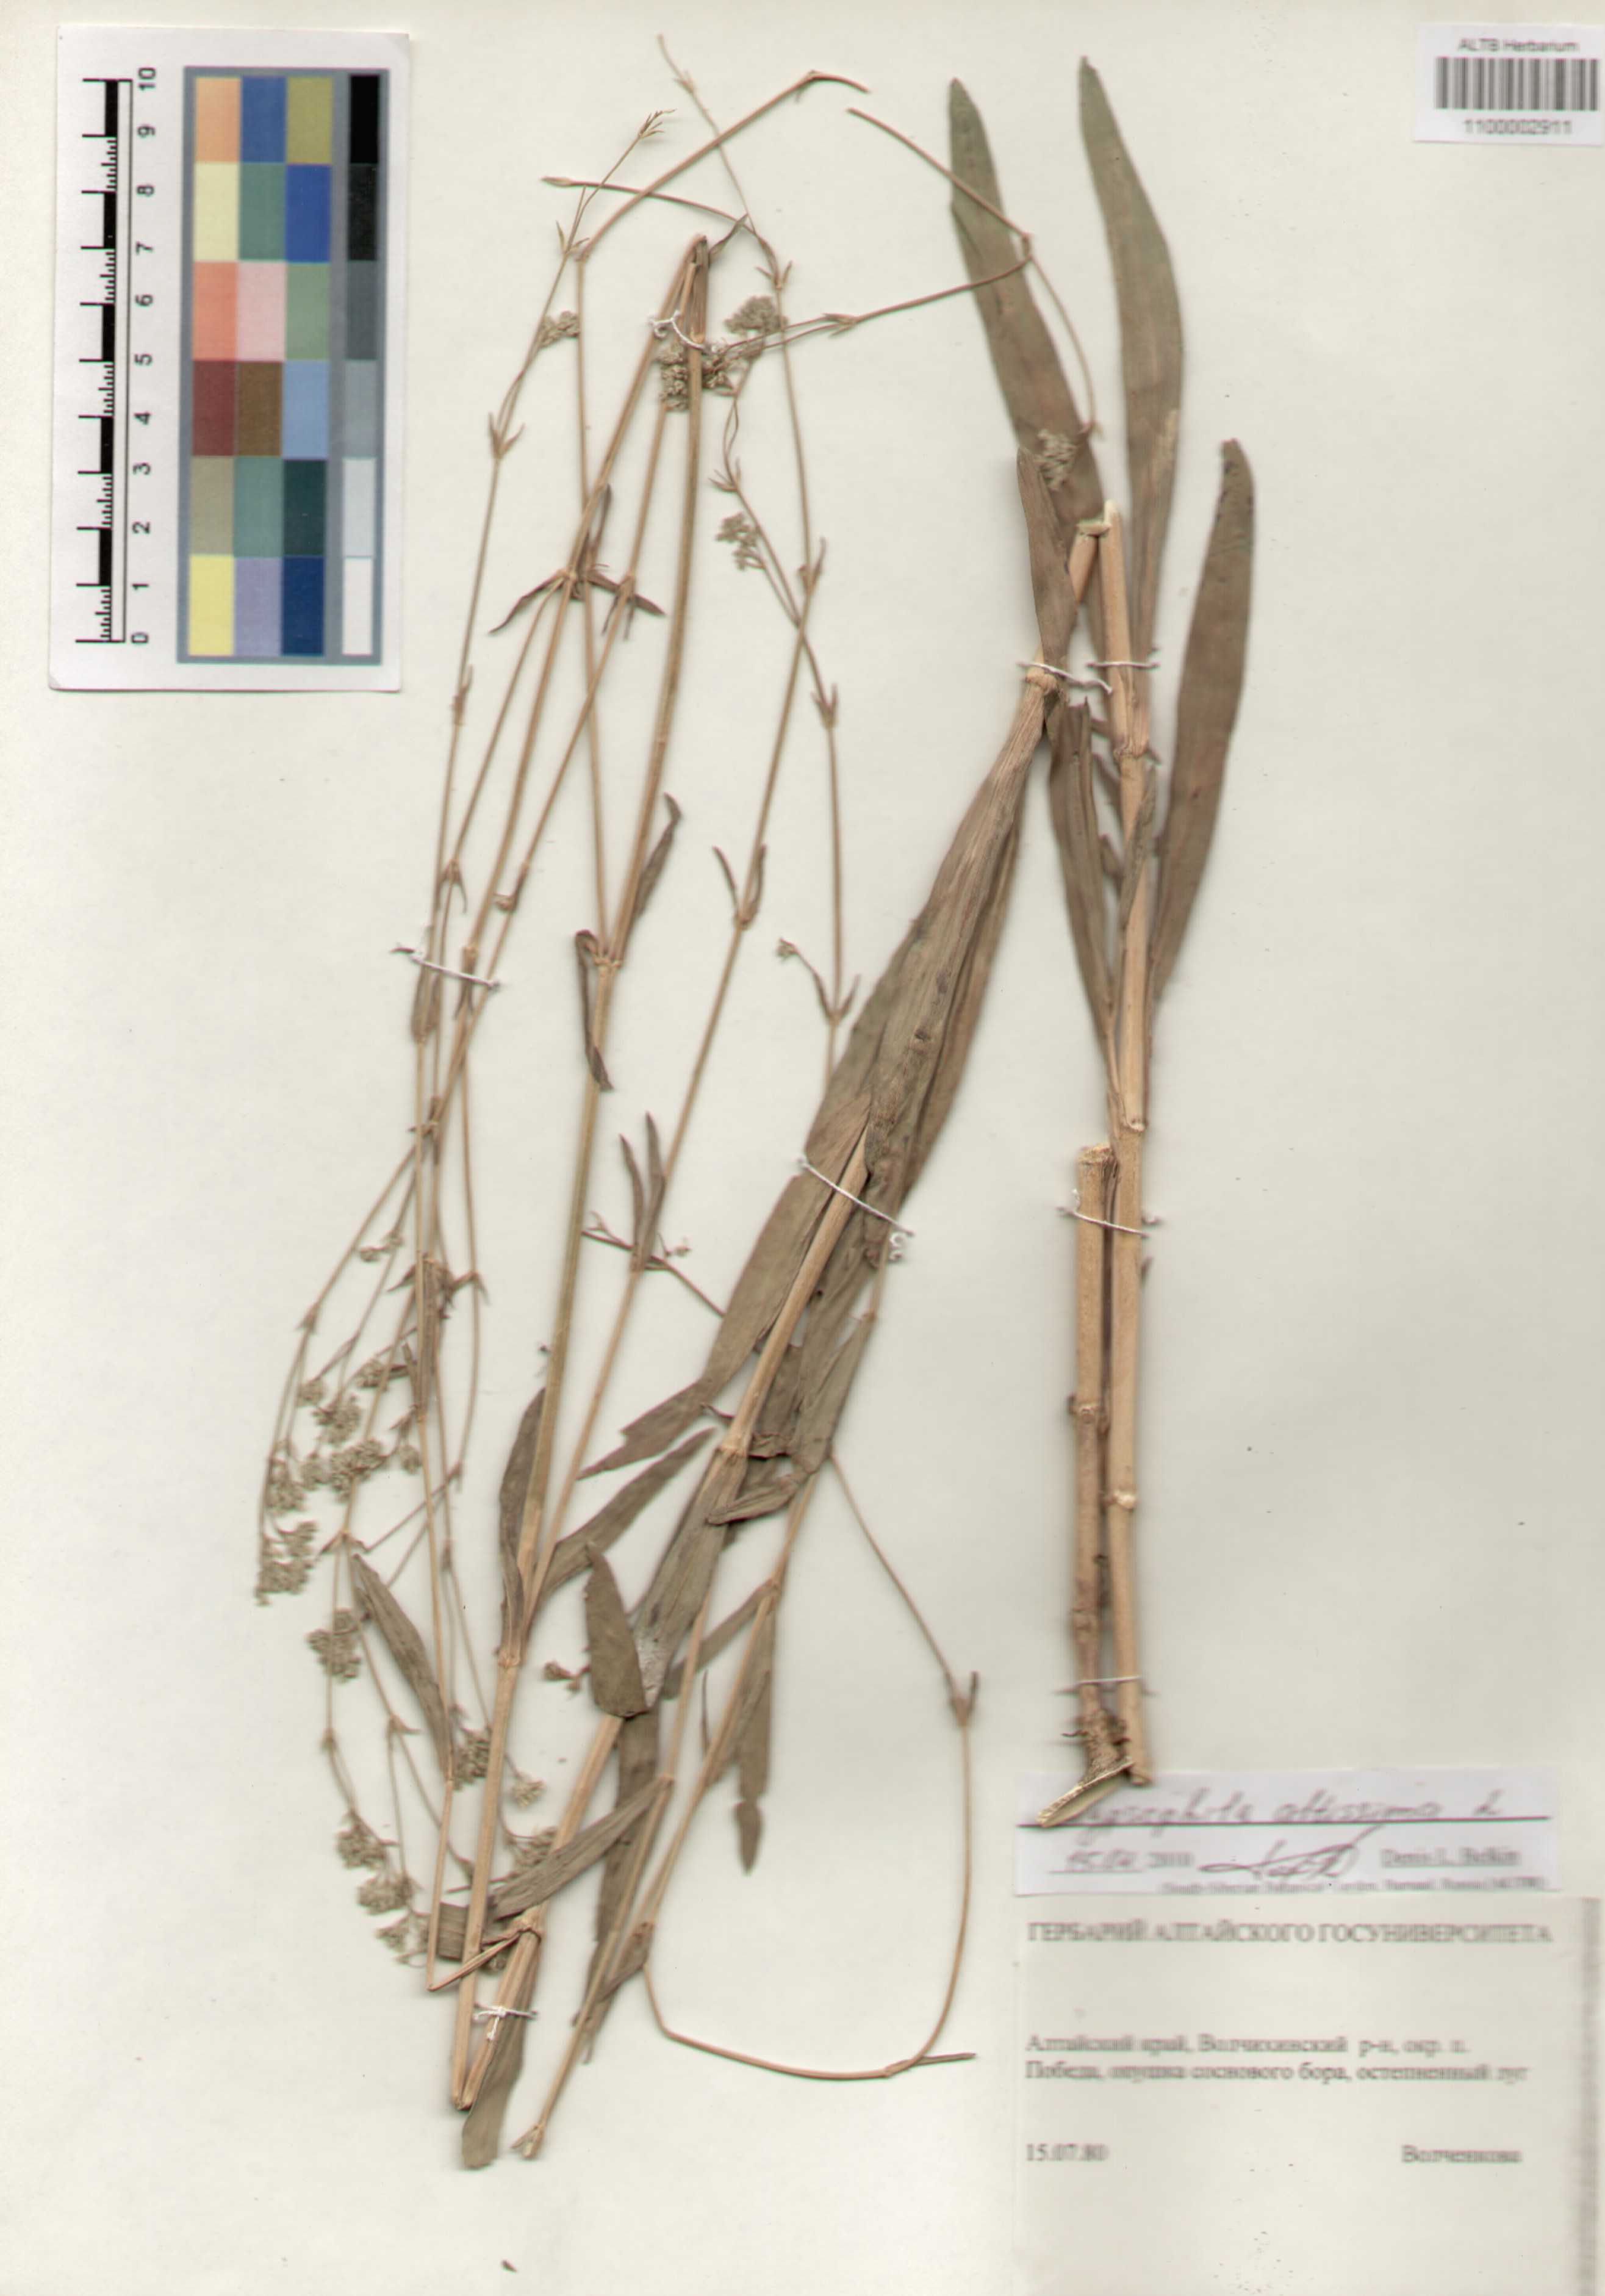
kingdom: Plantae
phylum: Tracheophyta
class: Magnoliopsida
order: Caryophyllales
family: Caryophyllaceae
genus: Gypsophila
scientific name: Gypsophila altissima
